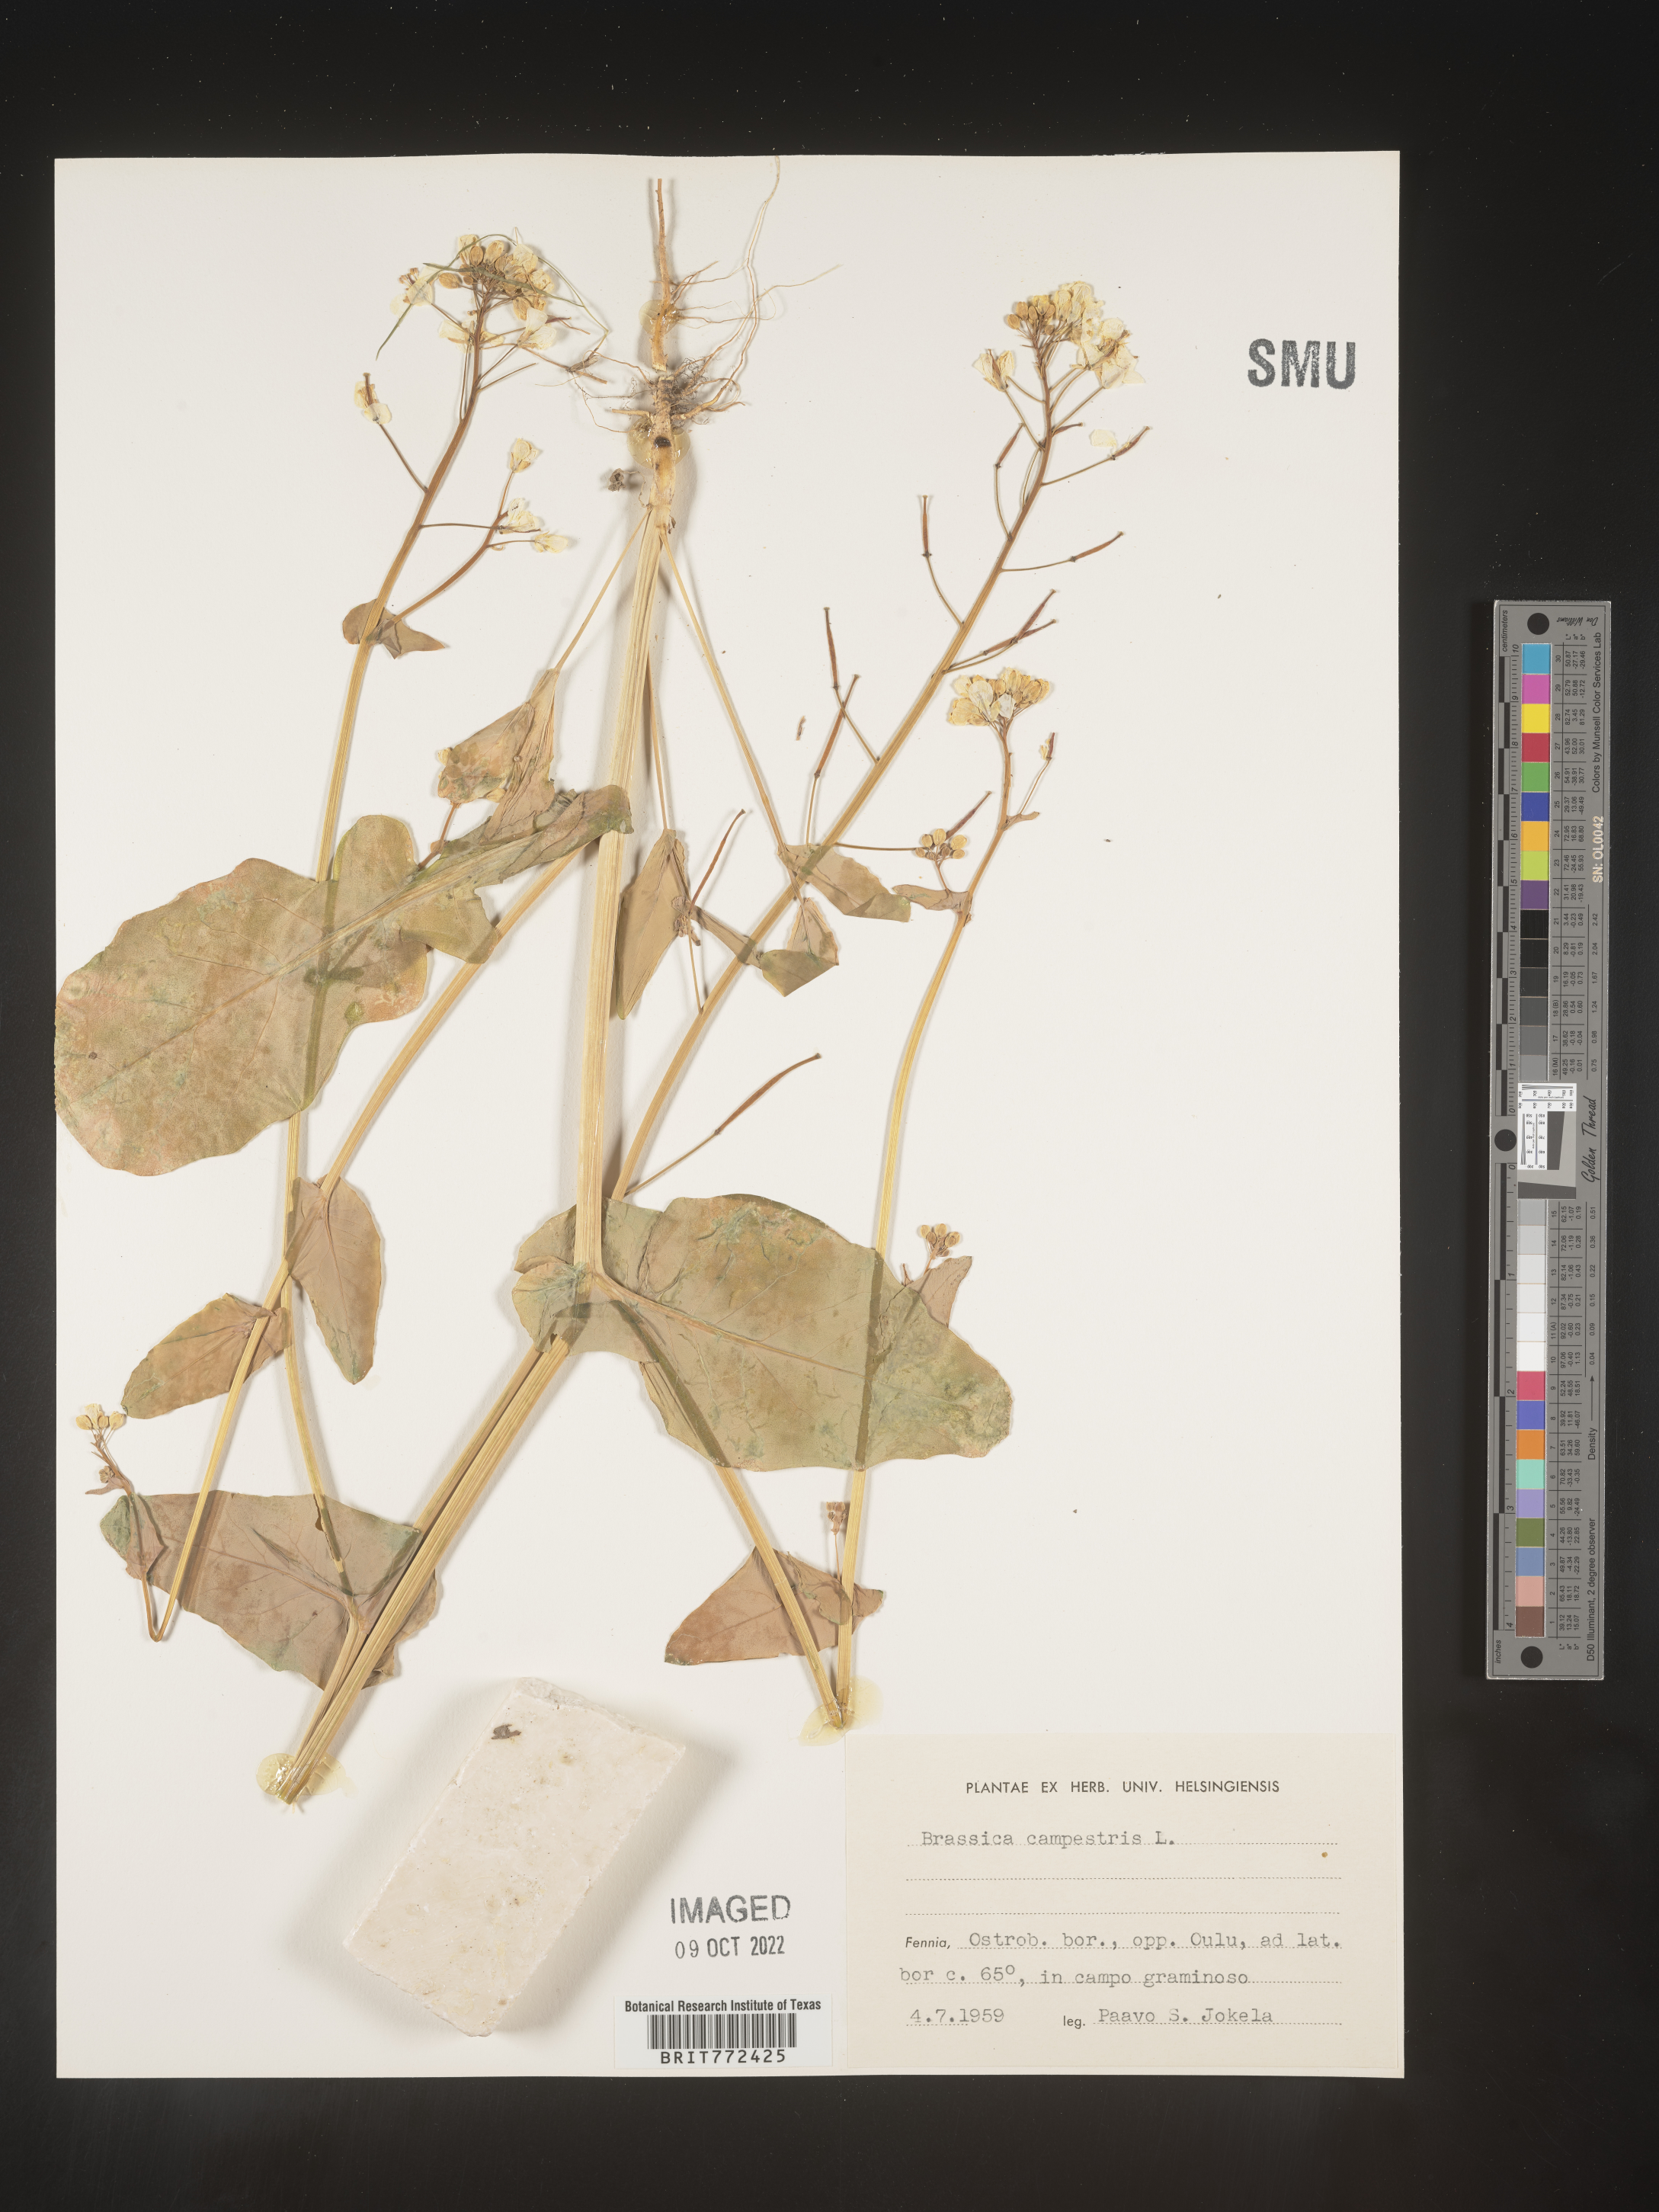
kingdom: Plantae
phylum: Tracheophyta
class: Magnoliopsida
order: Brassicales
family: Brassicaceae
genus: Brassica
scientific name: Brassica
